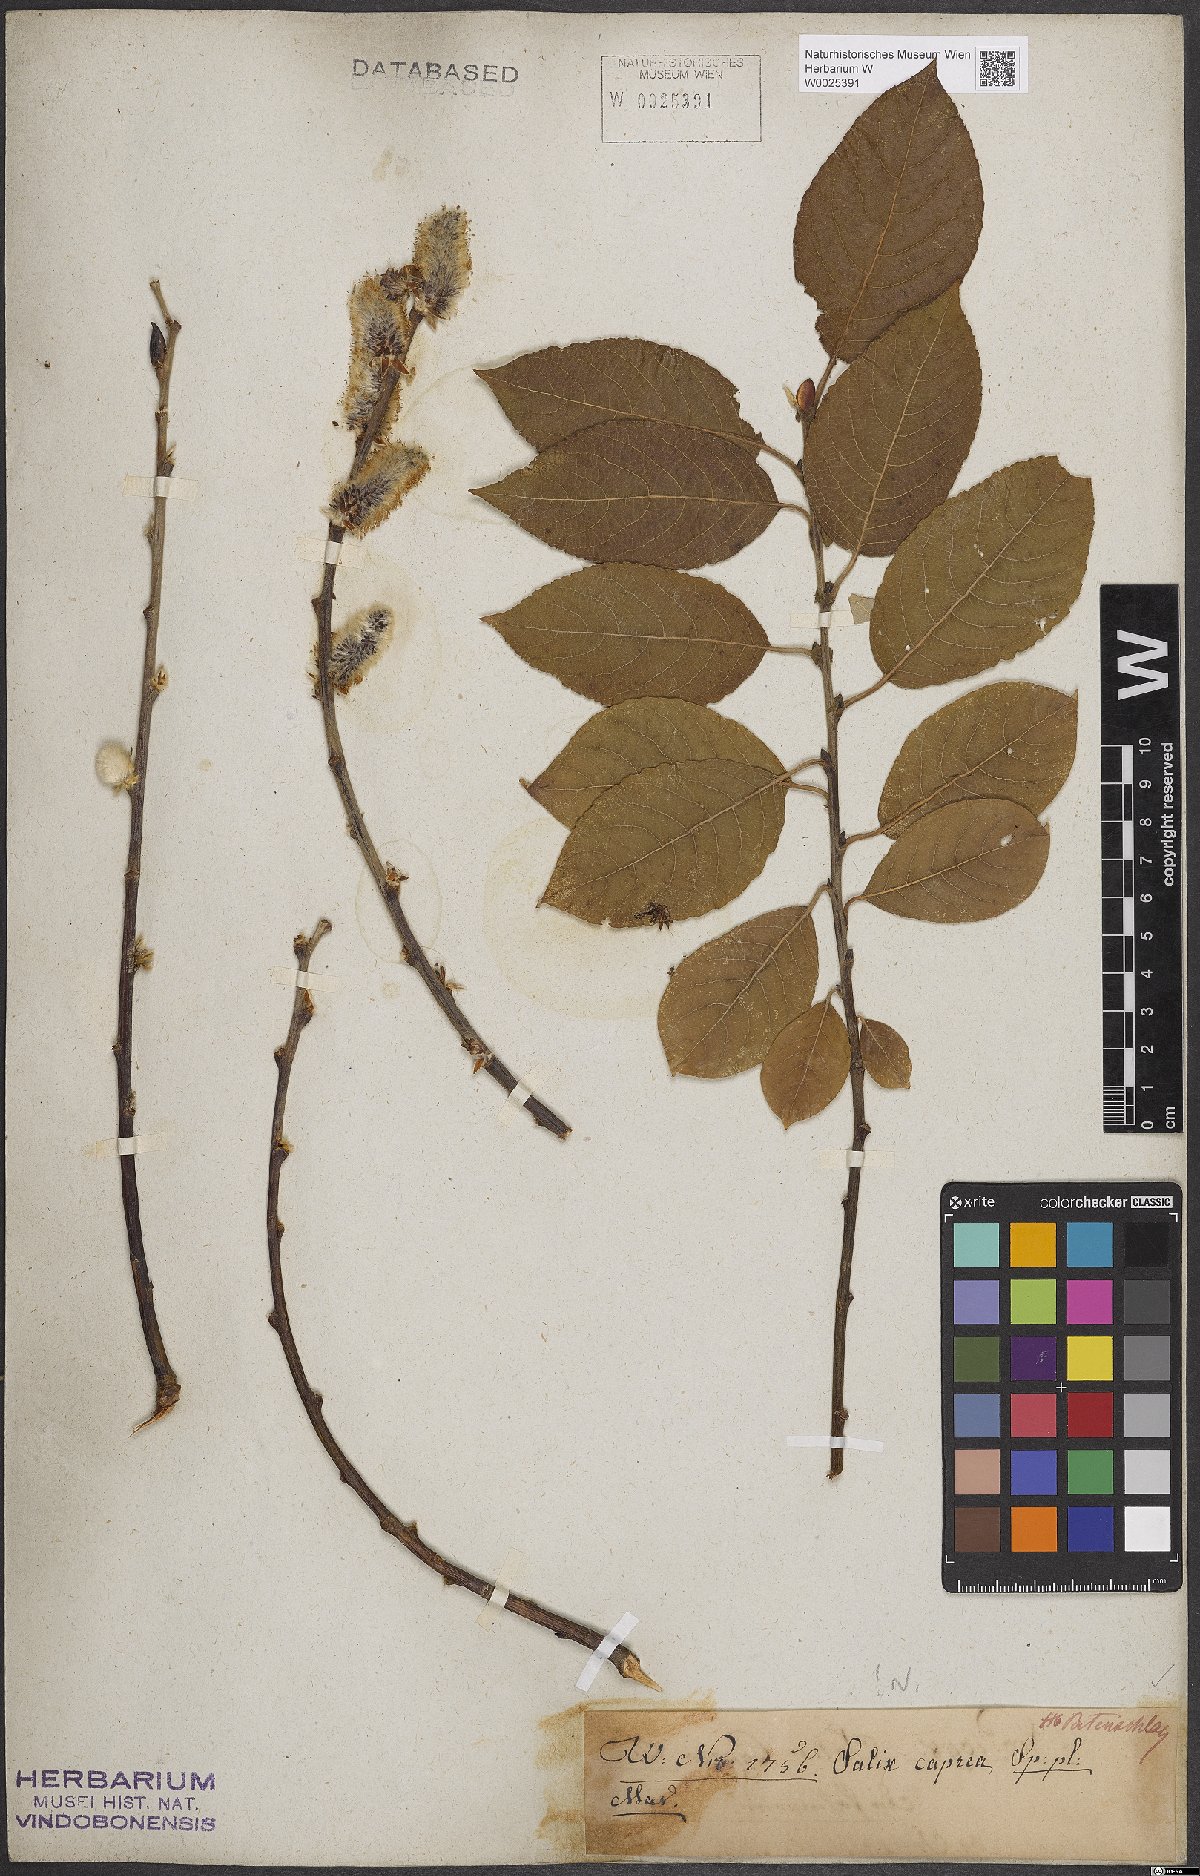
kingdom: Plantae
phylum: Tracheophyta
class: Magnoliopsida
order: Malpighiales
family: Salicaceae
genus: Salix
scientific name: Salix caprea
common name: Goat willow
